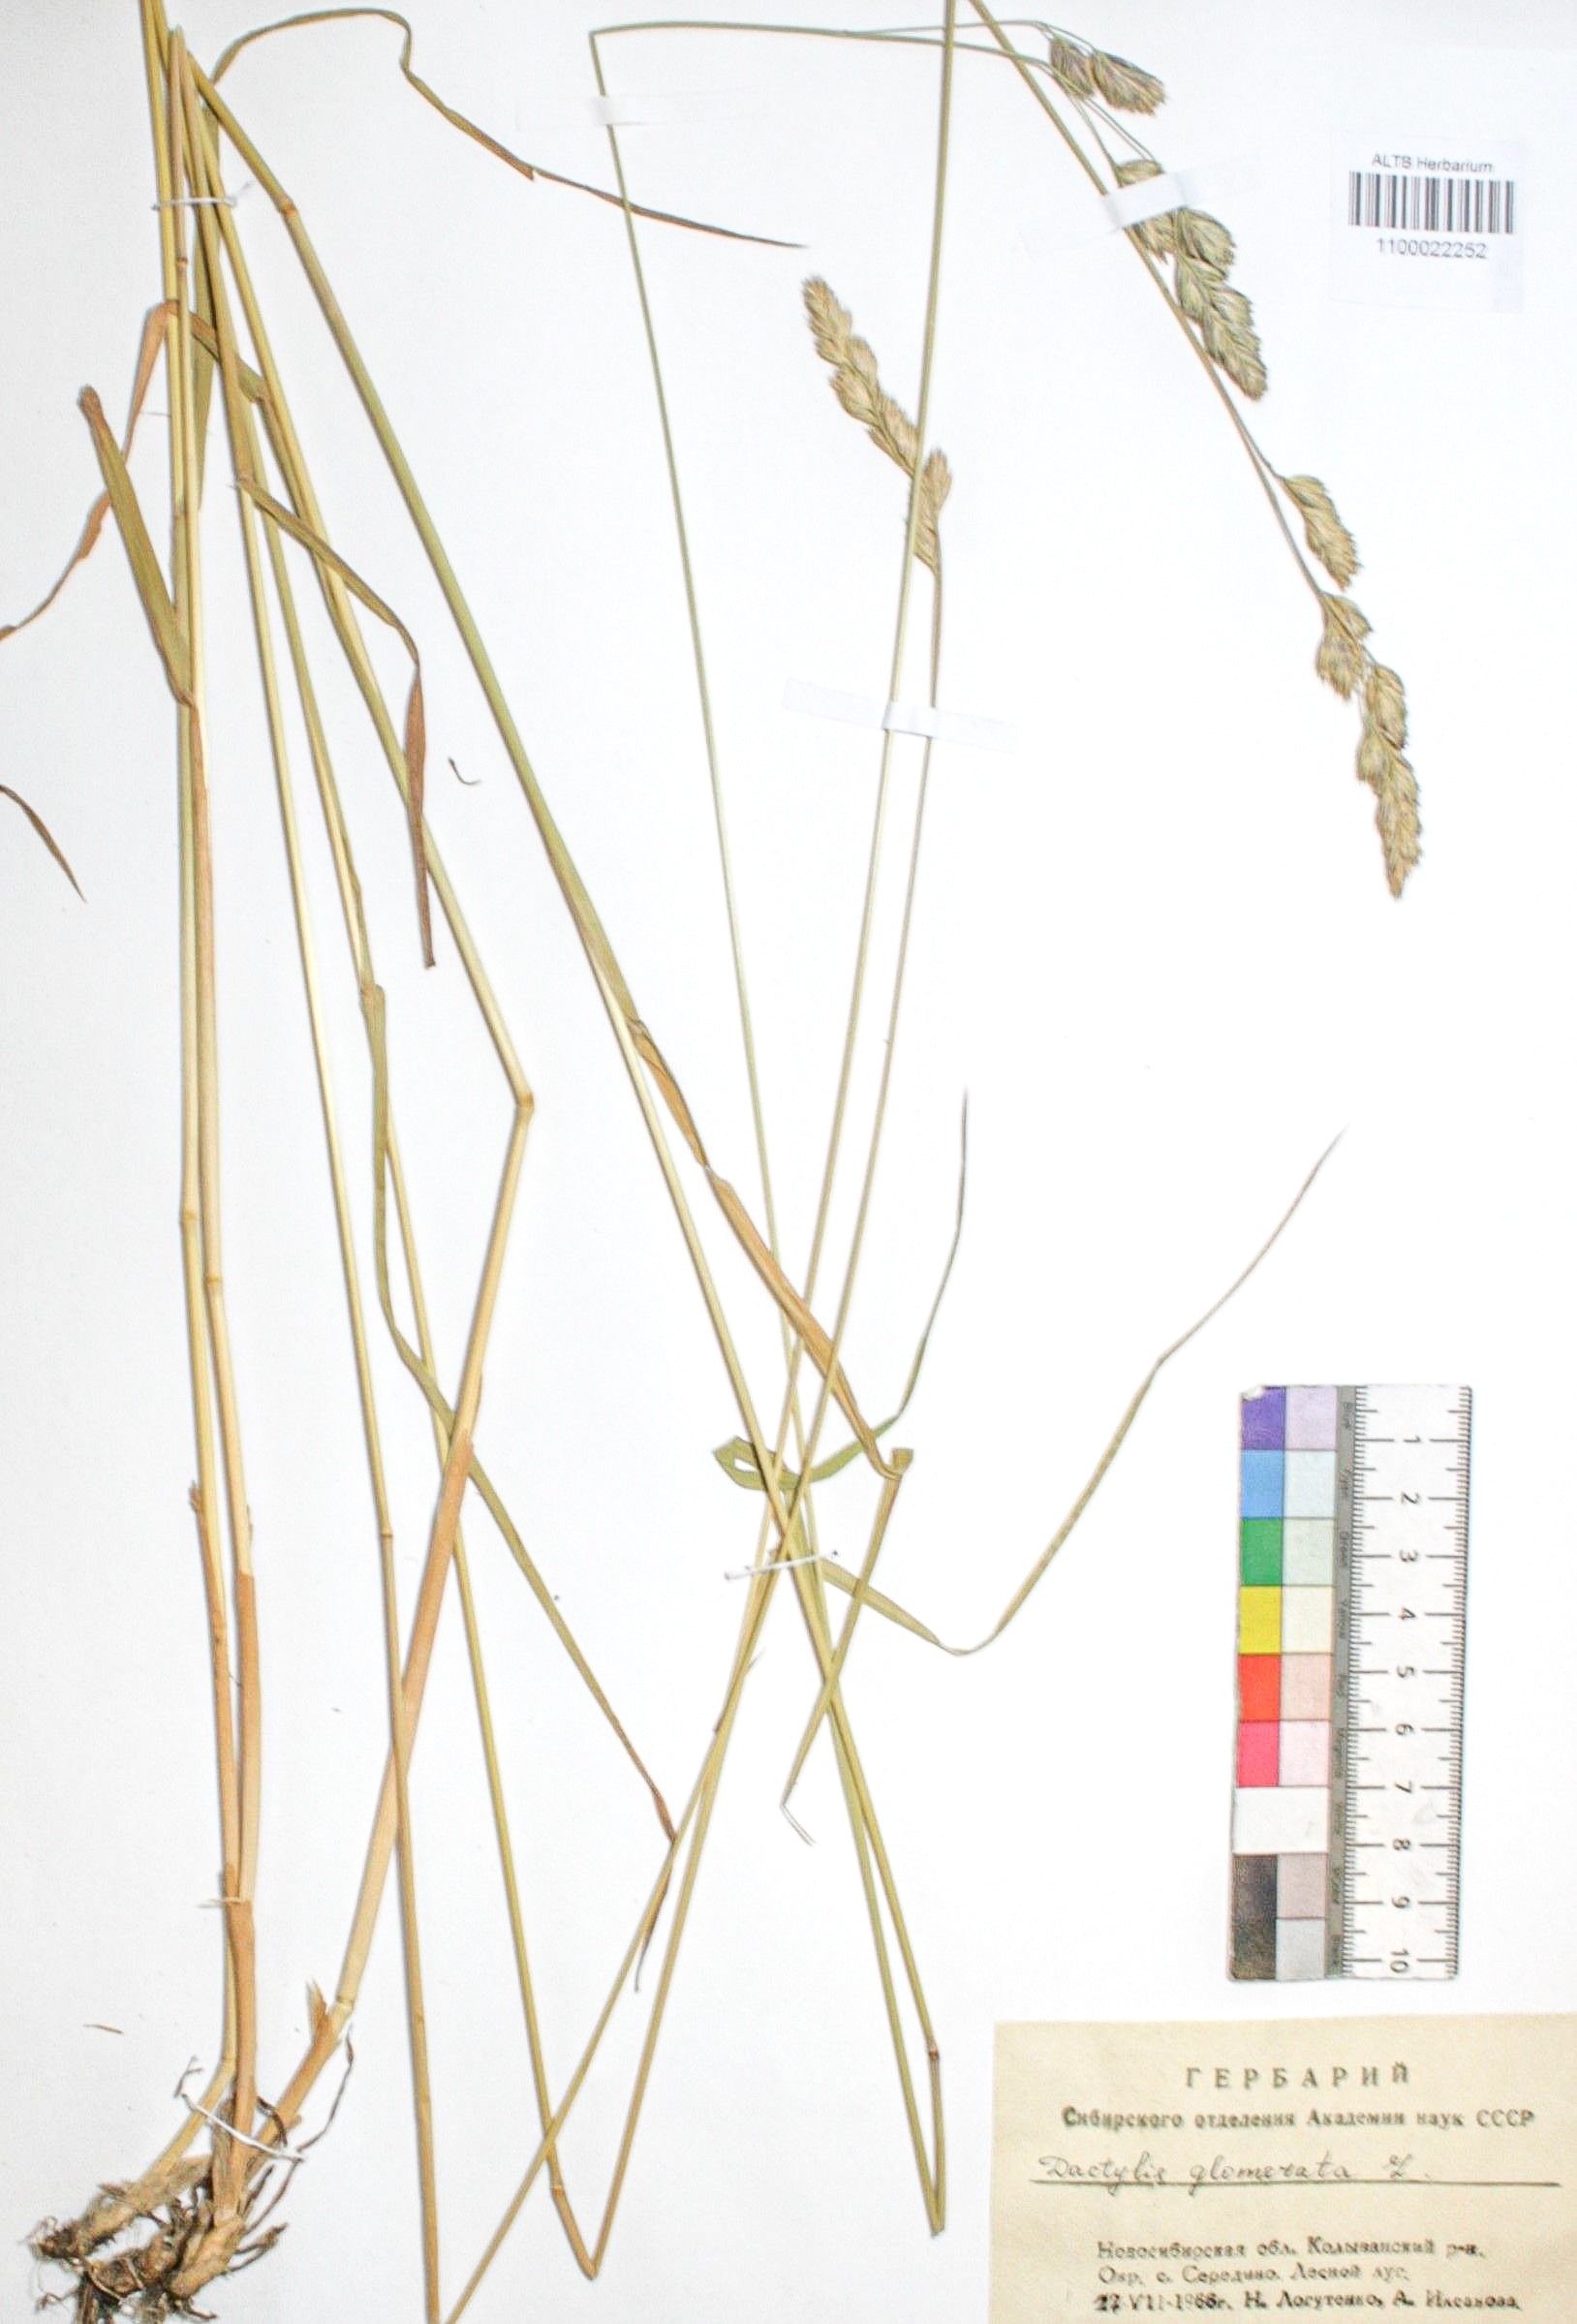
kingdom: Plantae
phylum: Tracheophyta
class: Liliopsida
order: Poales
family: Poaceae
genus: Dactylis
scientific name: Dactylis glomerata
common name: Orchardgrass
